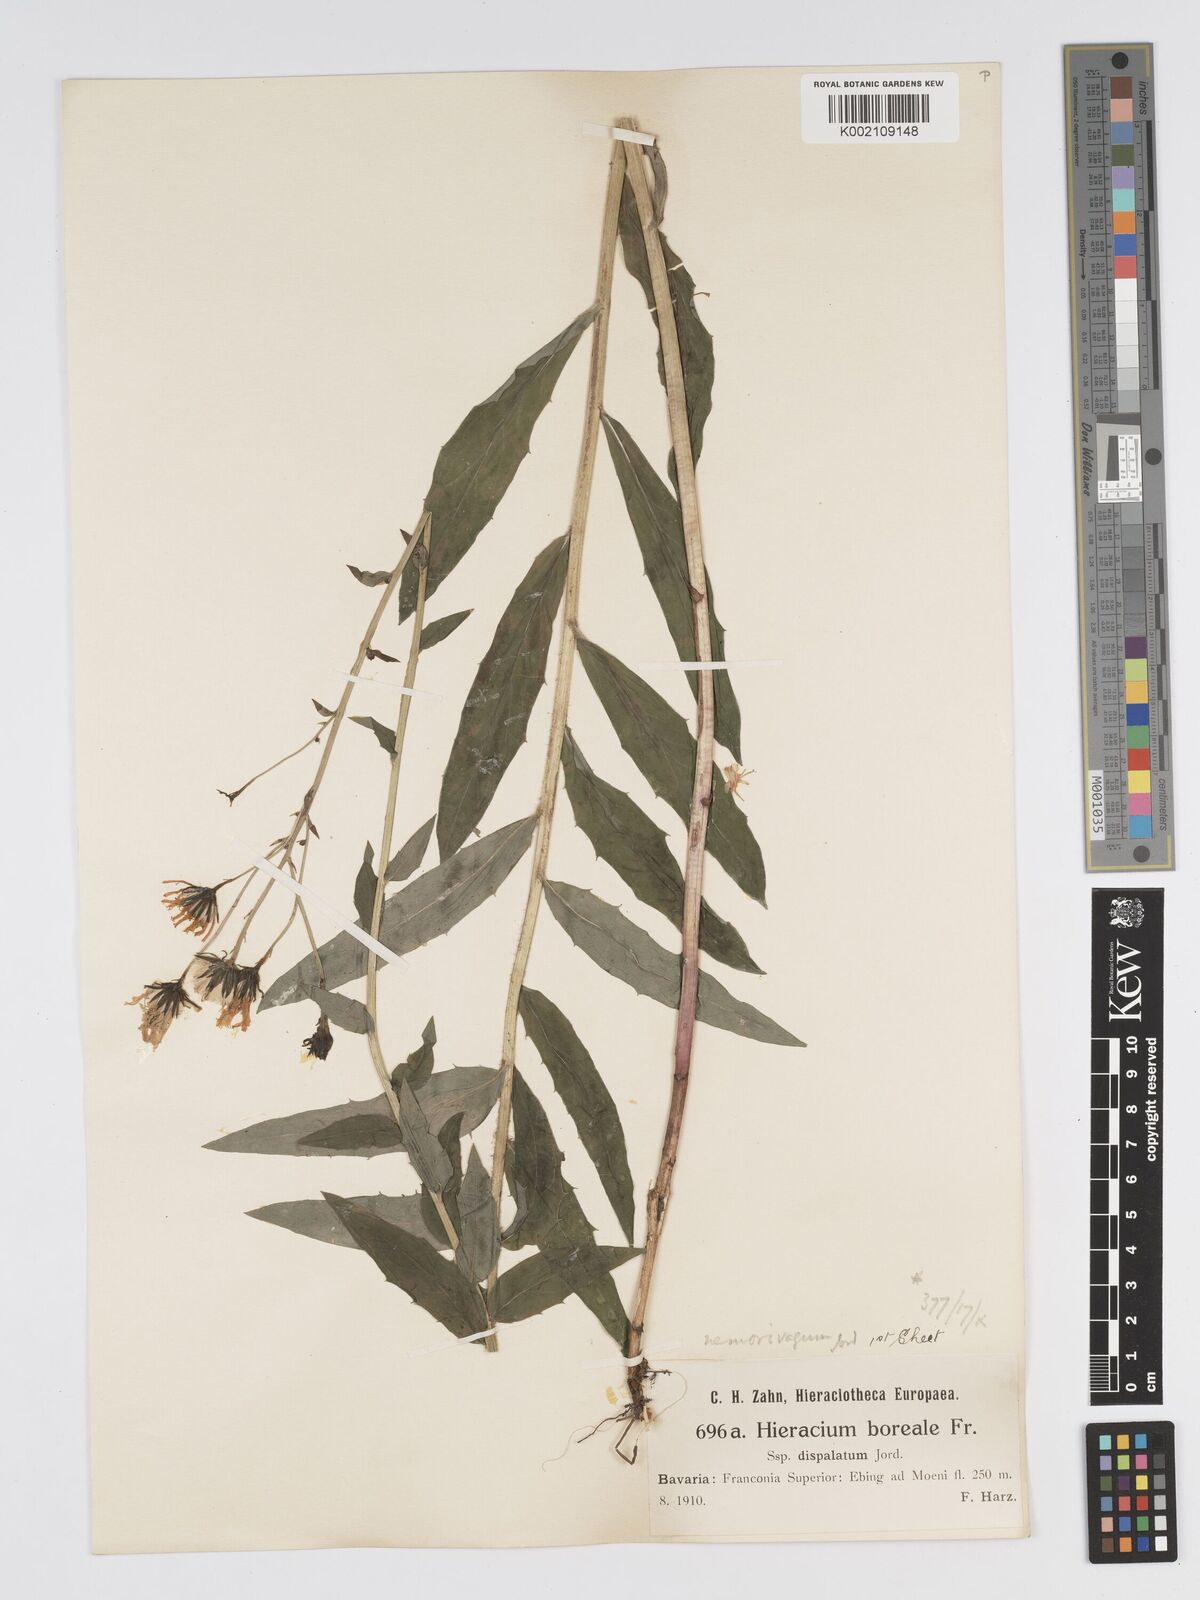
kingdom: Plantae
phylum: Tracheophyta
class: Magnoliopsida
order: Asterales
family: Asteraceae
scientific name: Asteraceae
